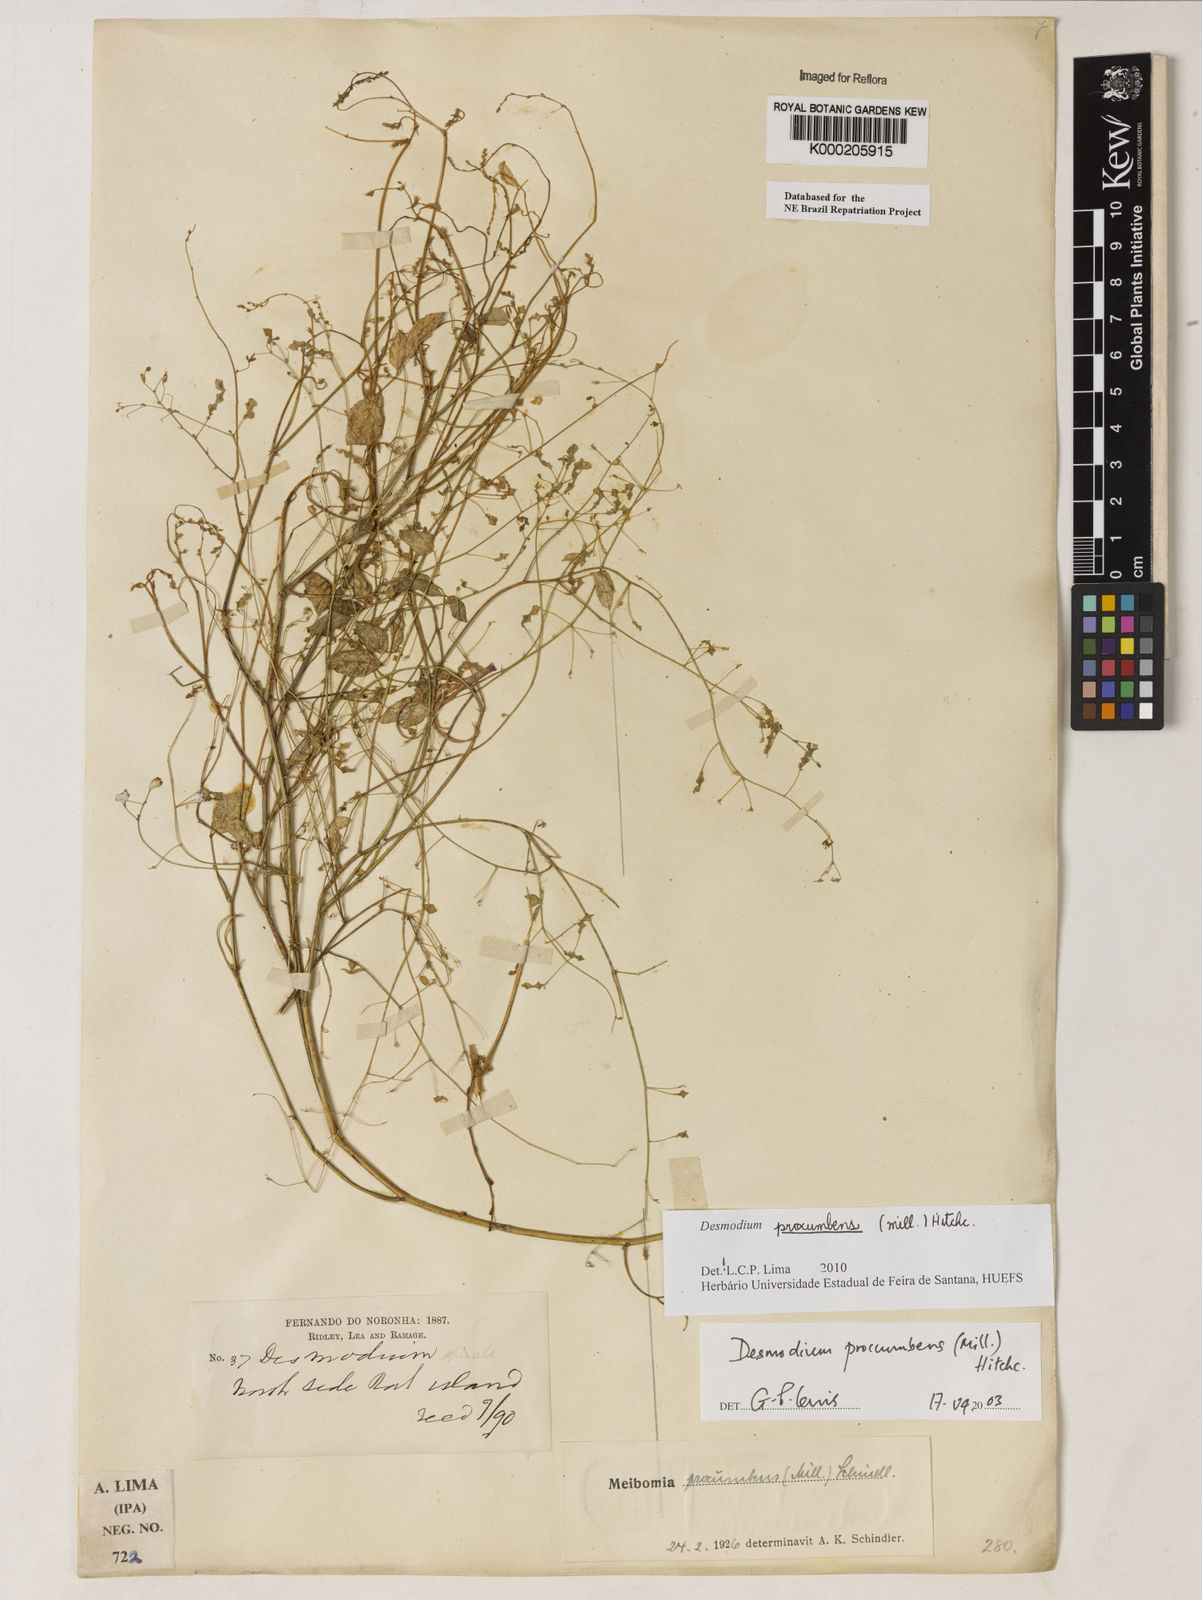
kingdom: Plantae
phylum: Tracheophyta
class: Magnoliopsida
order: Fabales
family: Fabaceae
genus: Desmodium
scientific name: Desmodium procumbens
